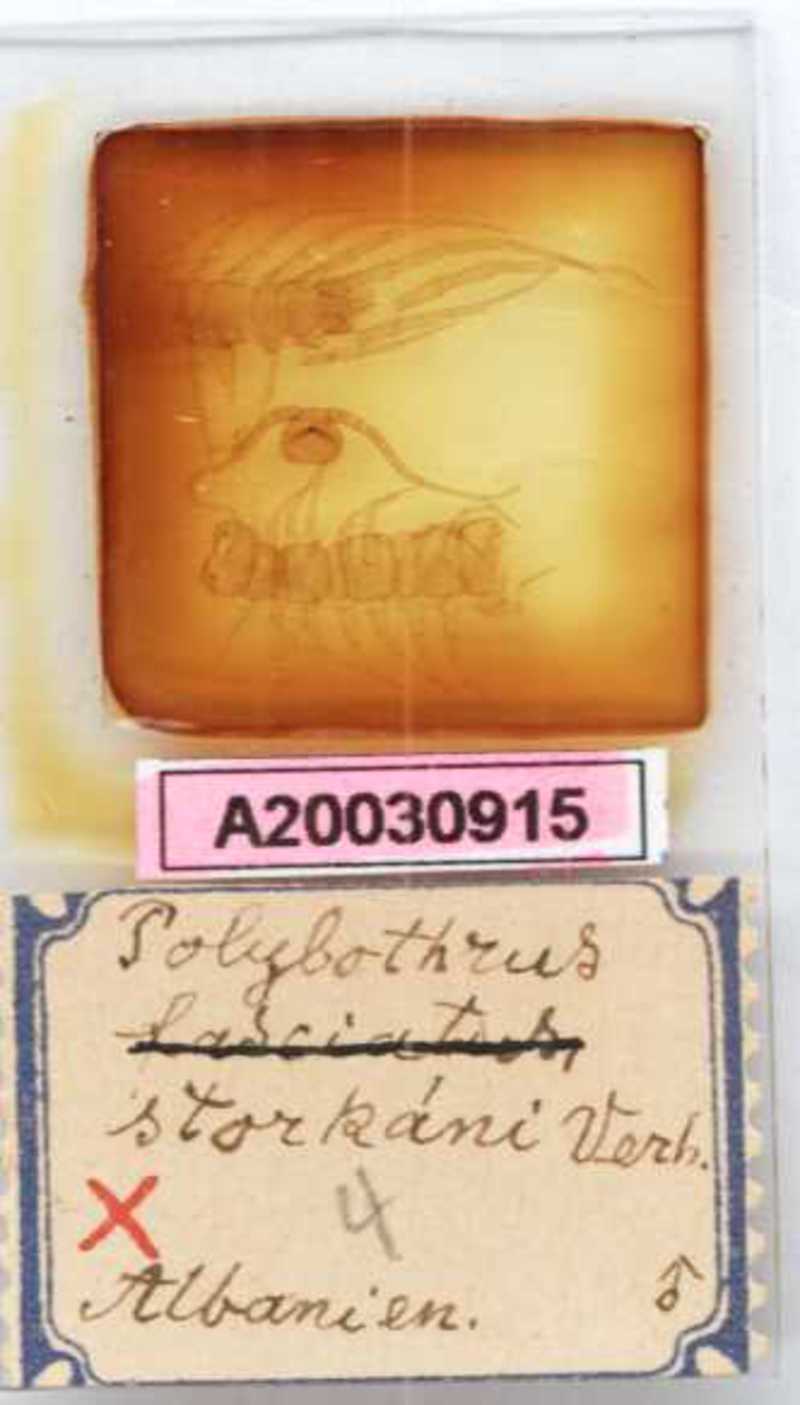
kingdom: Animalia
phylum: Arthropoda
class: Chilopoda
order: Lithobiomorpha
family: Lithobiidae
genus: Eupolybothrus
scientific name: Eupolybothrus litoralis
